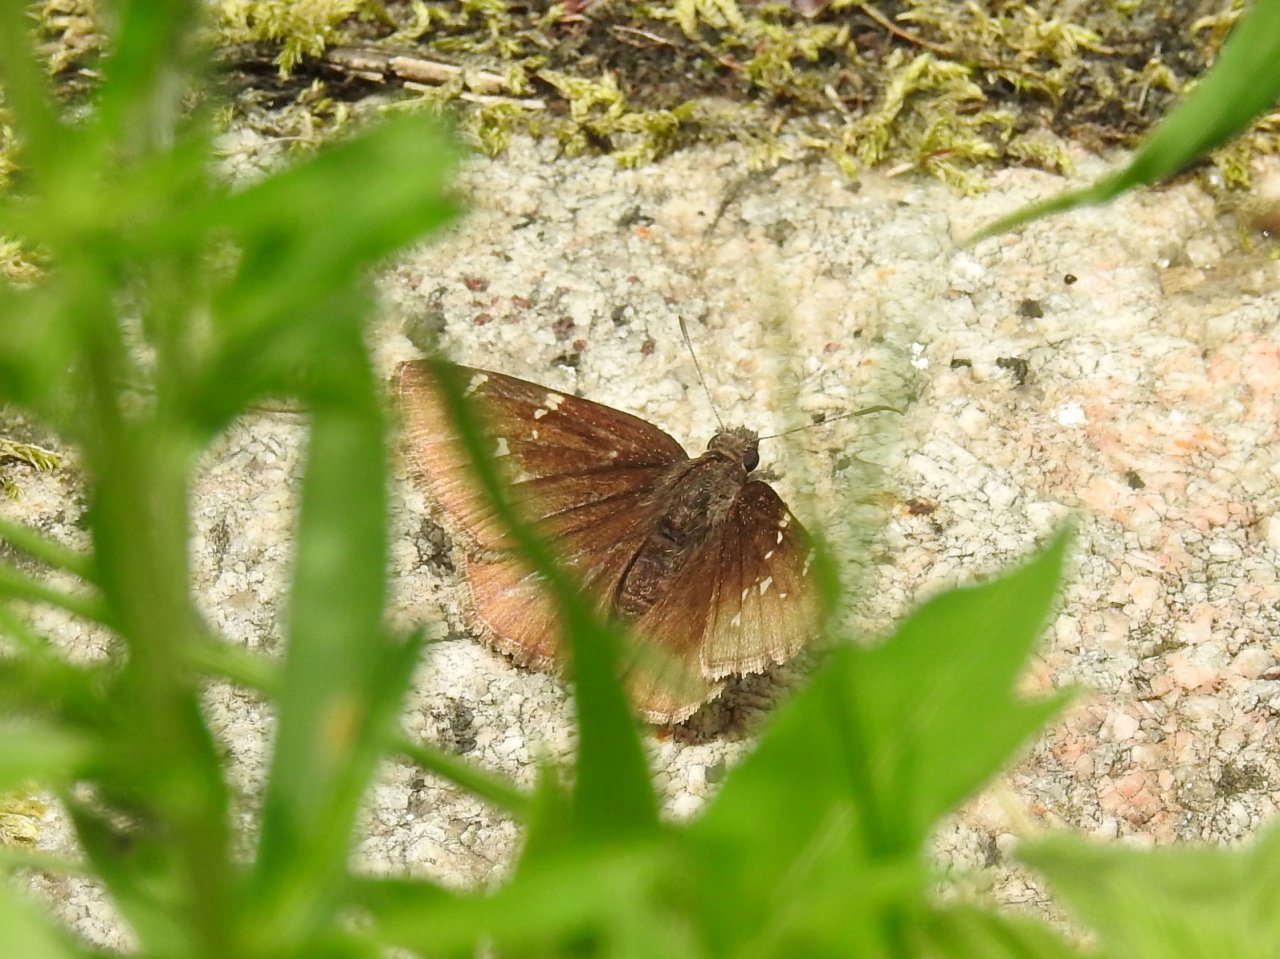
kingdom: Animalia
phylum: Arthropoda
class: Insecta
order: Lepidoptera
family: Hesperiidae
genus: Autochton
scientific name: Autochton
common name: Northern Cloudywing
